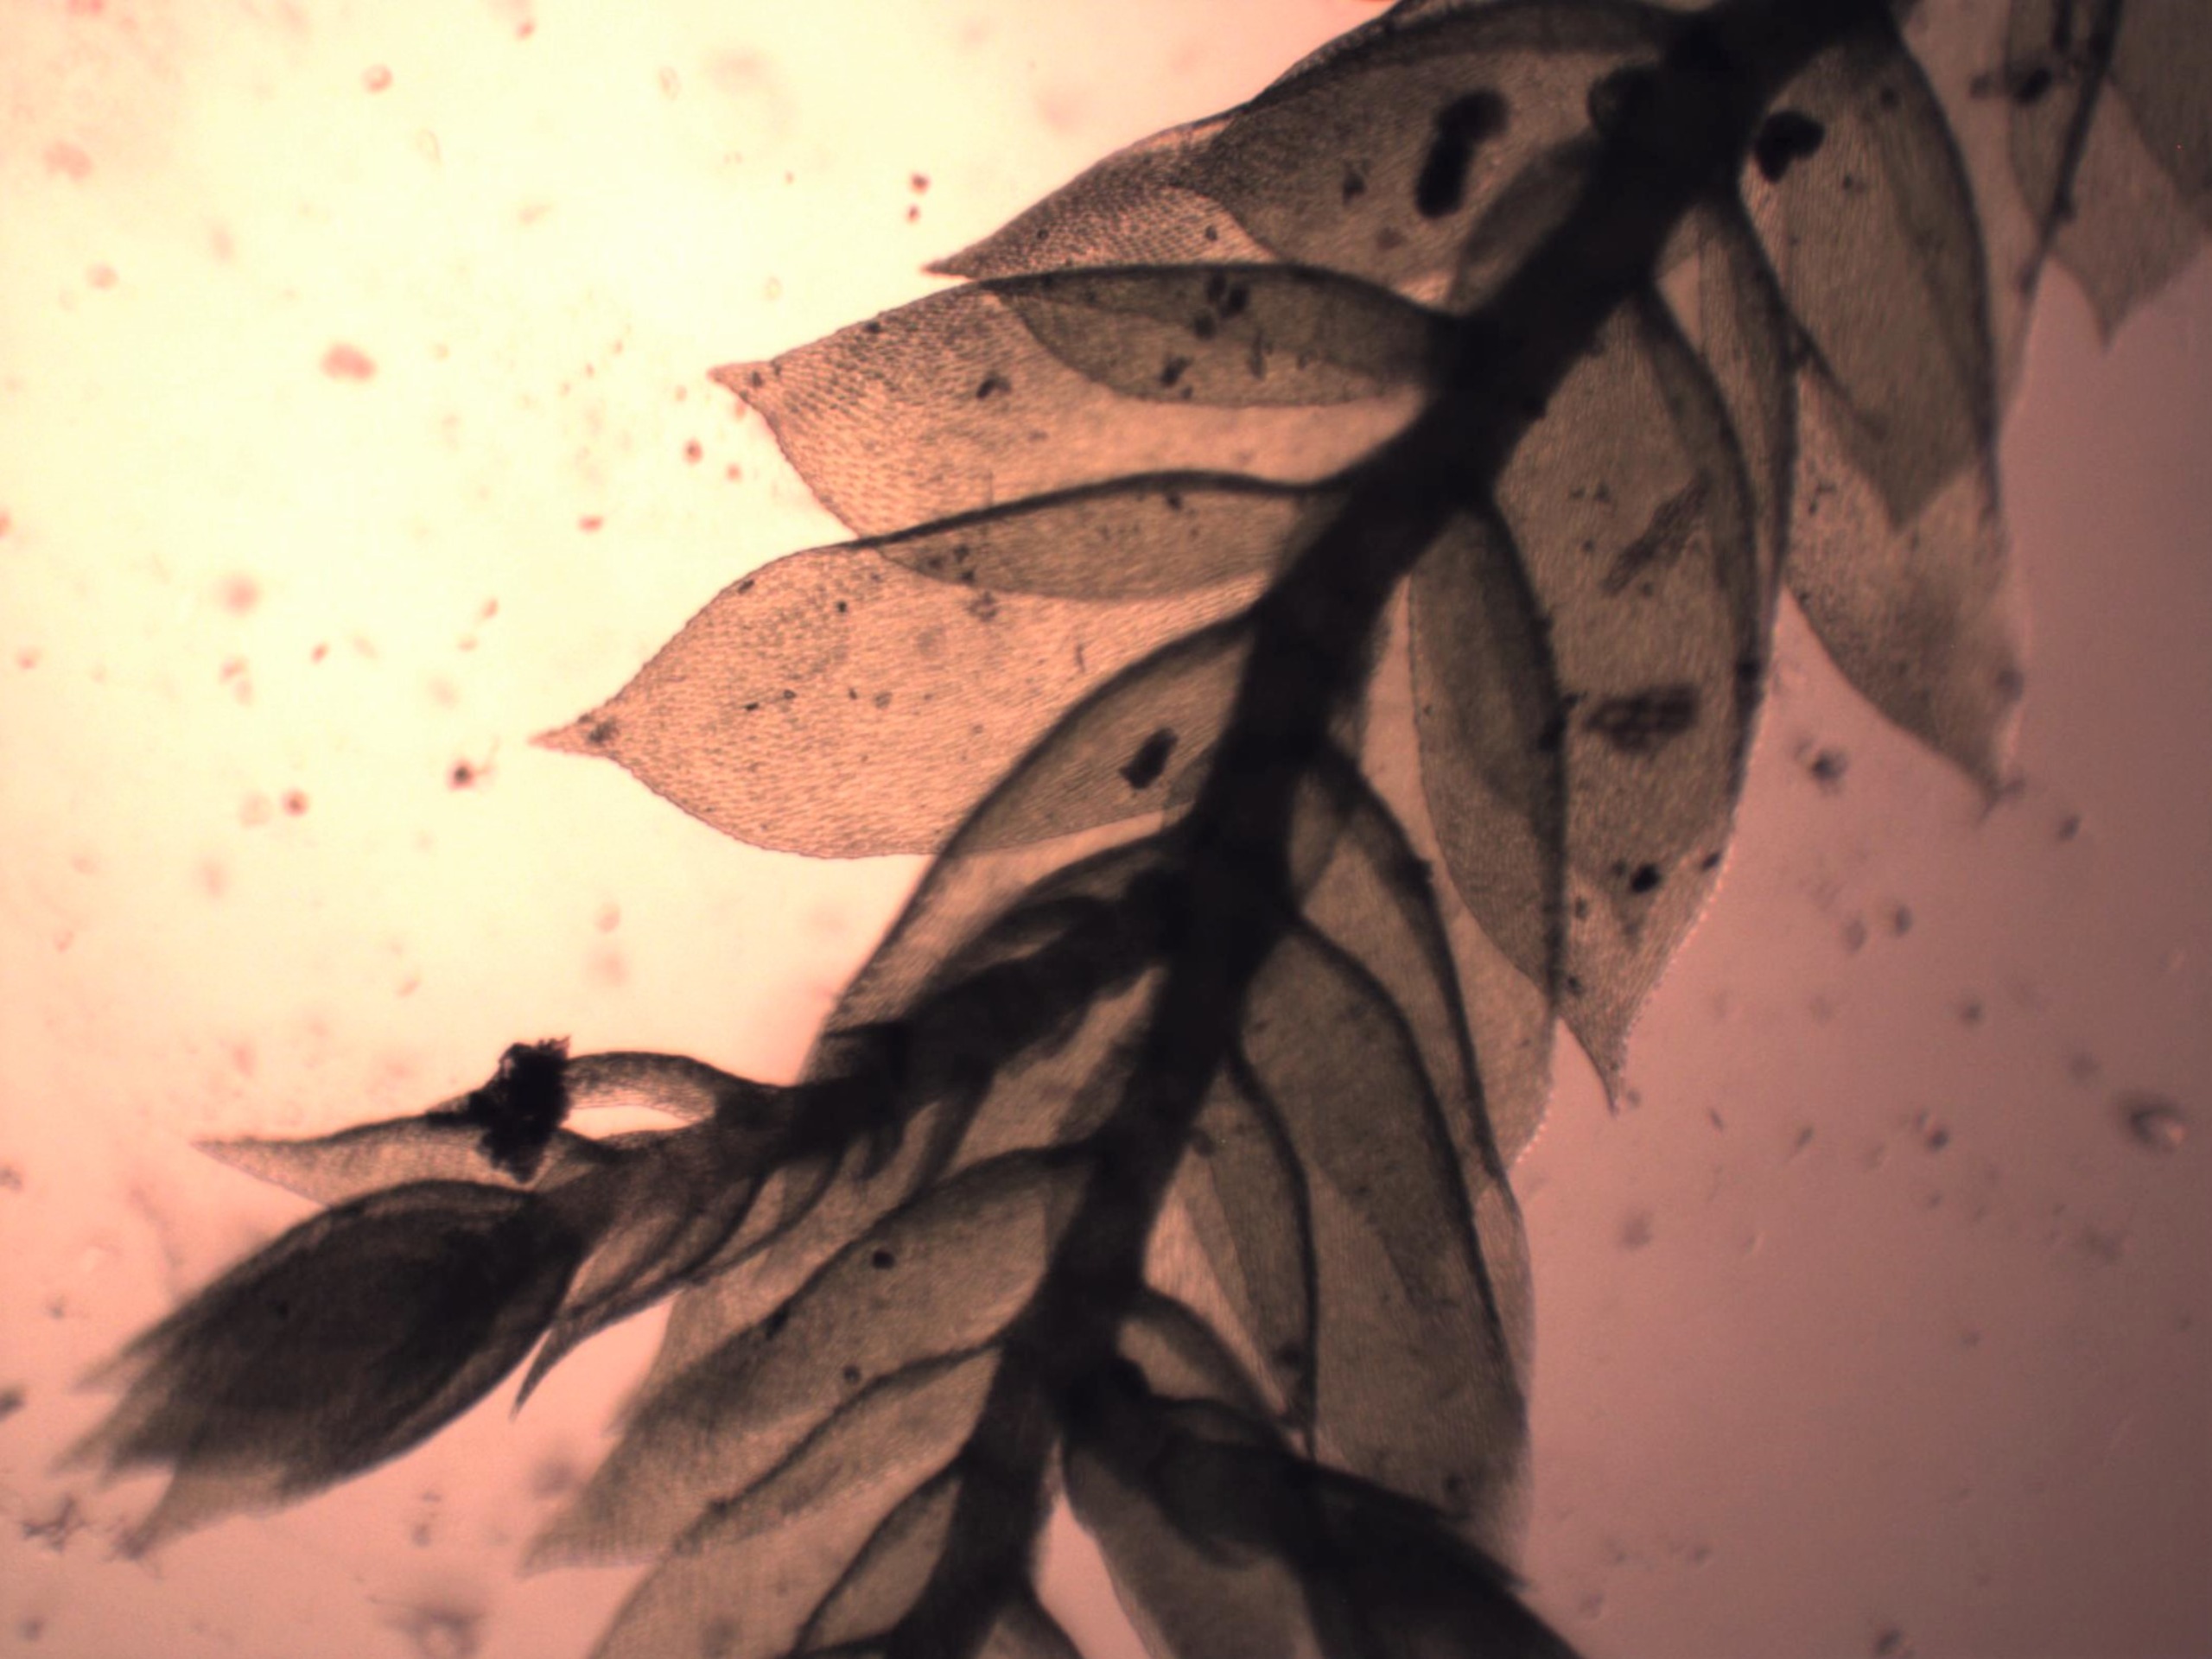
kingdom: Plantae
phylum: Bryophyta
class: Bryopsida
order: Hypnales
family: Neckeraceae
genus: Alleniella
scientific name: Alleniella complanata
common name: Almindelig fladmos
